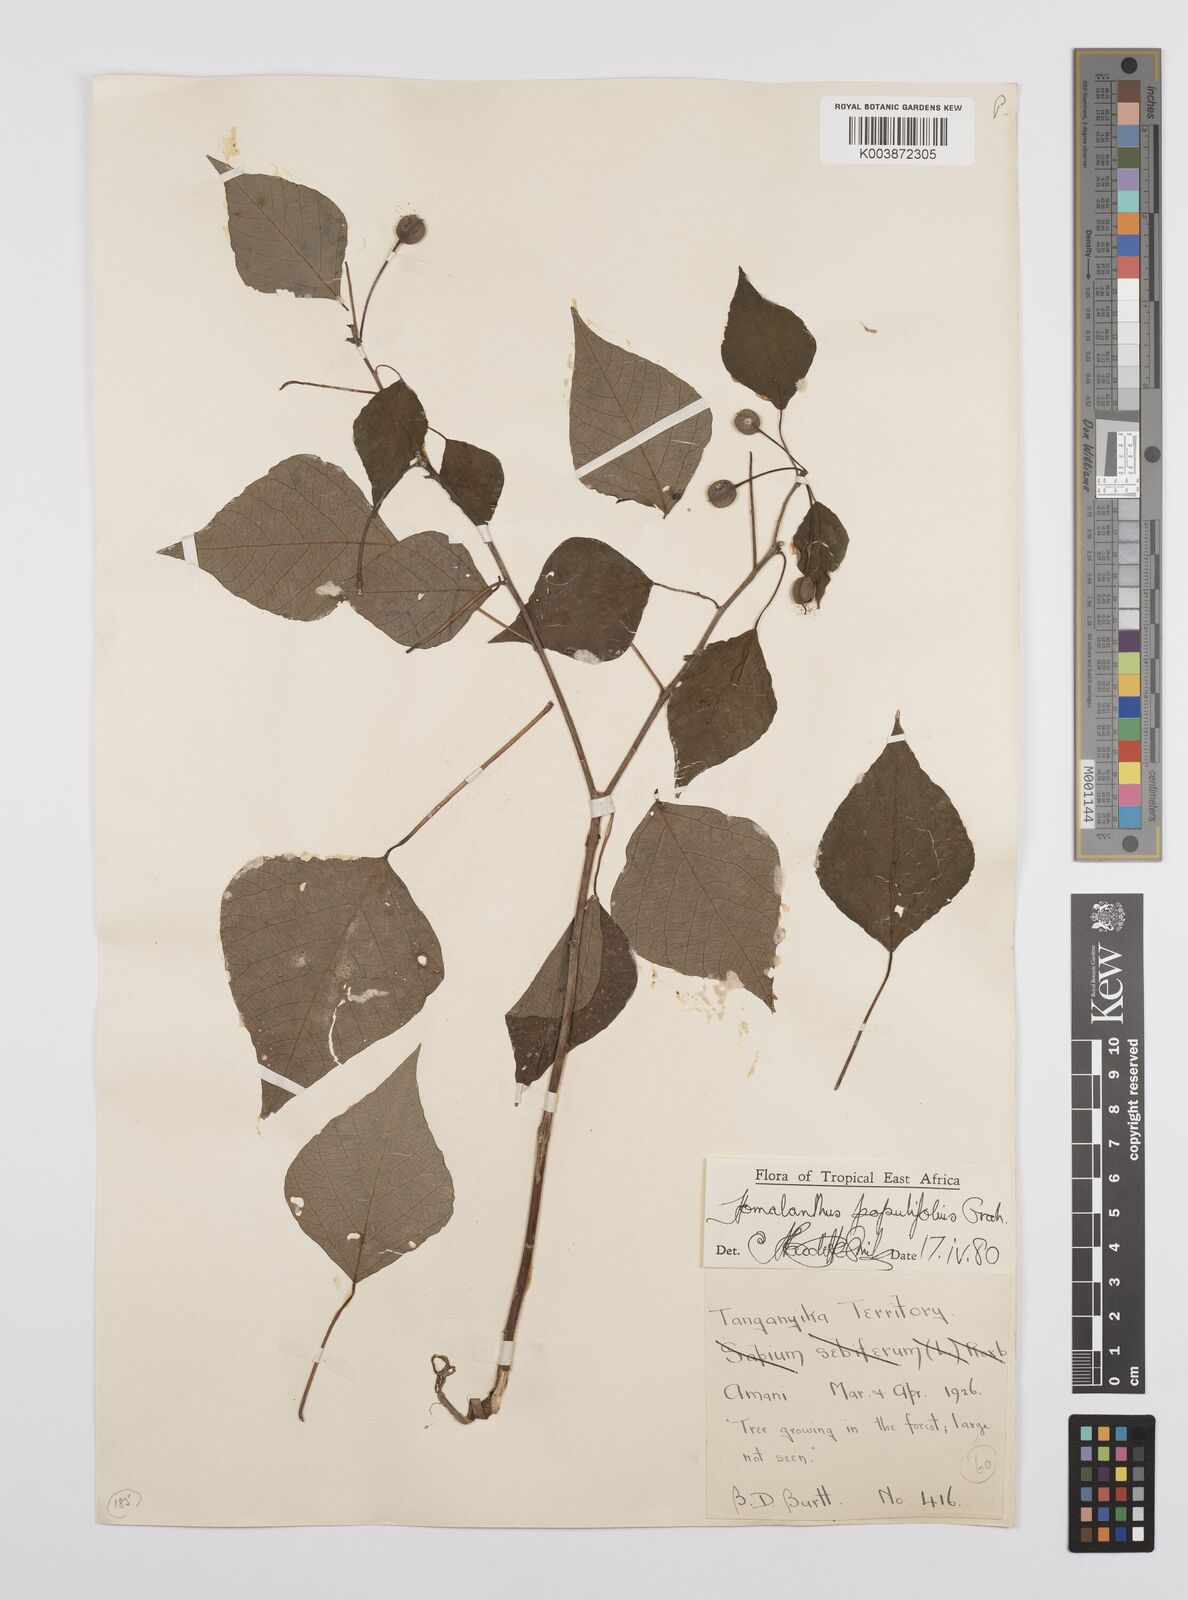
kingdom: Plantae
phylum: Tracheophyta
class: Magnoliopsida
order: Malpighiales
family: Euphorbiaceae
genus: Homalanthus
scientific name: Homalanthus populifolius
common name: Queensland poplar
